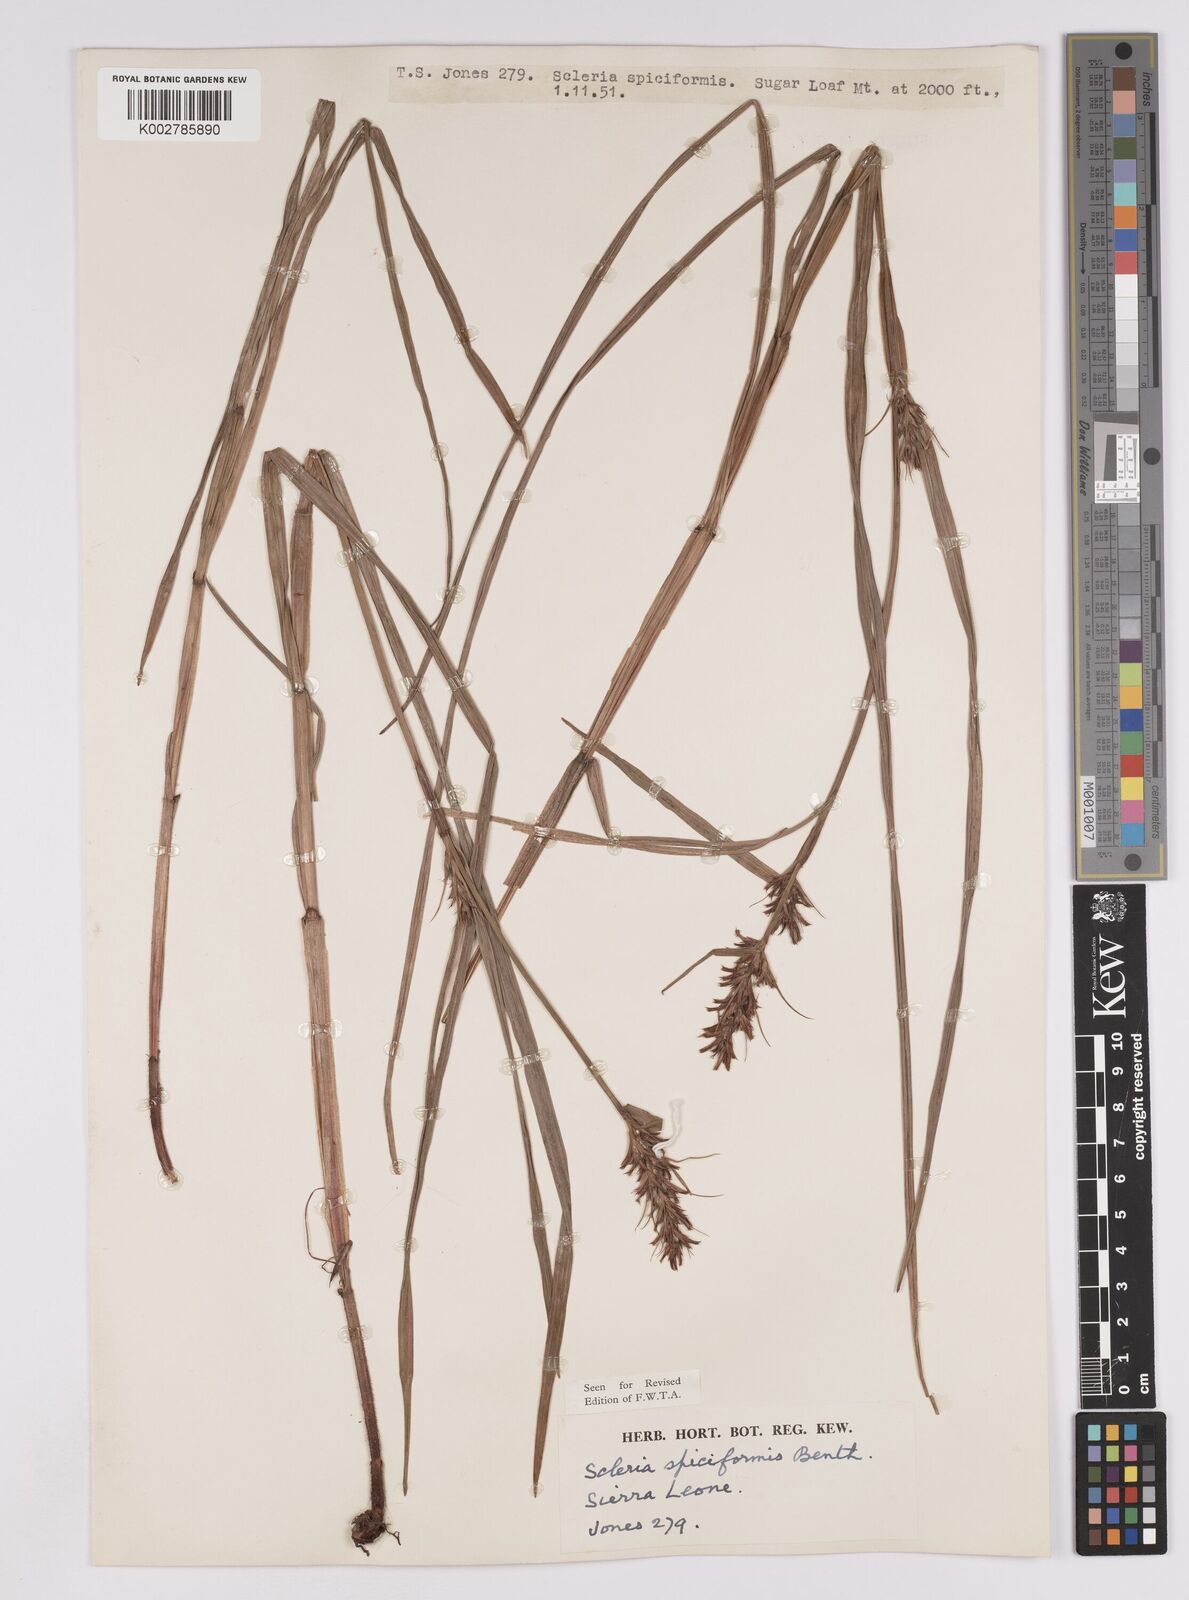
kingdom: Plantae
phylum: Tracheophyta
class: Liliopsida
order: Poales
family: Cyperaceae
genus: Scleria
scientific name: Scleria spiciformis
